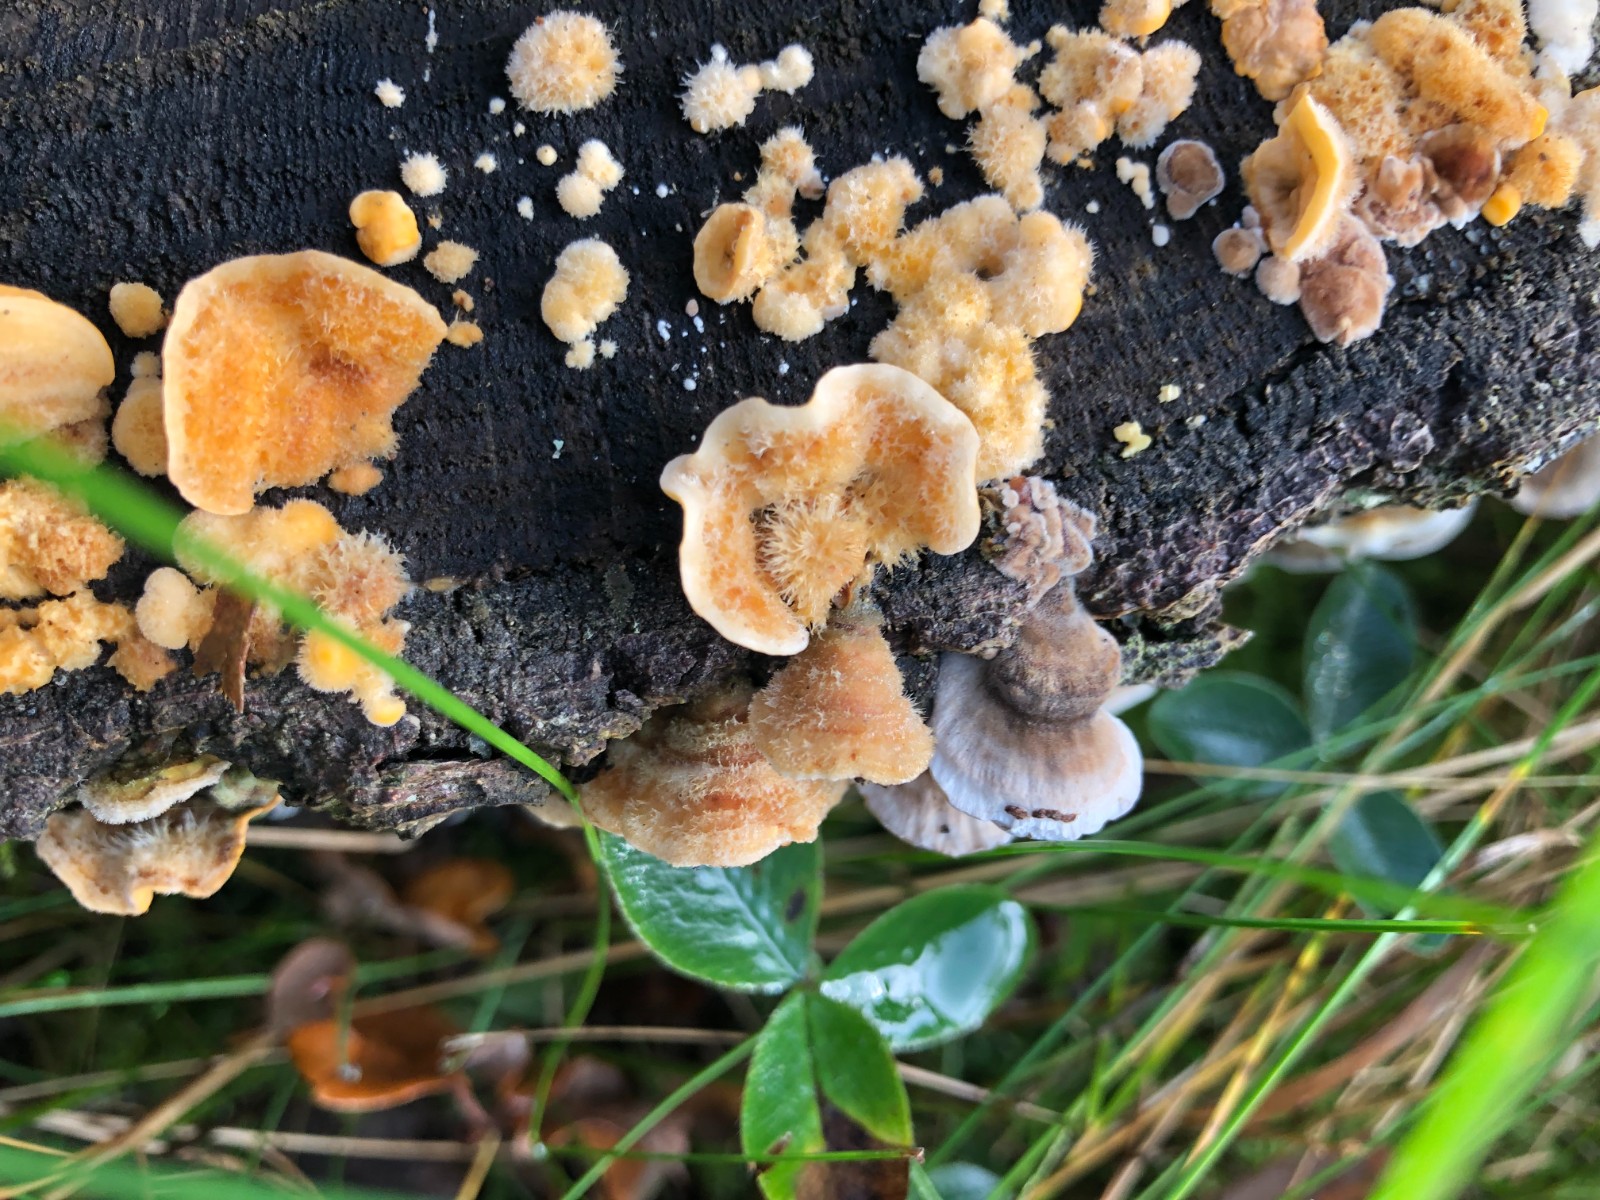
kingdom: Fungi
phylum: Basidiomycota
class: Agaricomycetes
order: Russulales
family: Stereaceae
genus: Stereum
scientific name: Stereum hirsutum
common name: håret lædersvamp
